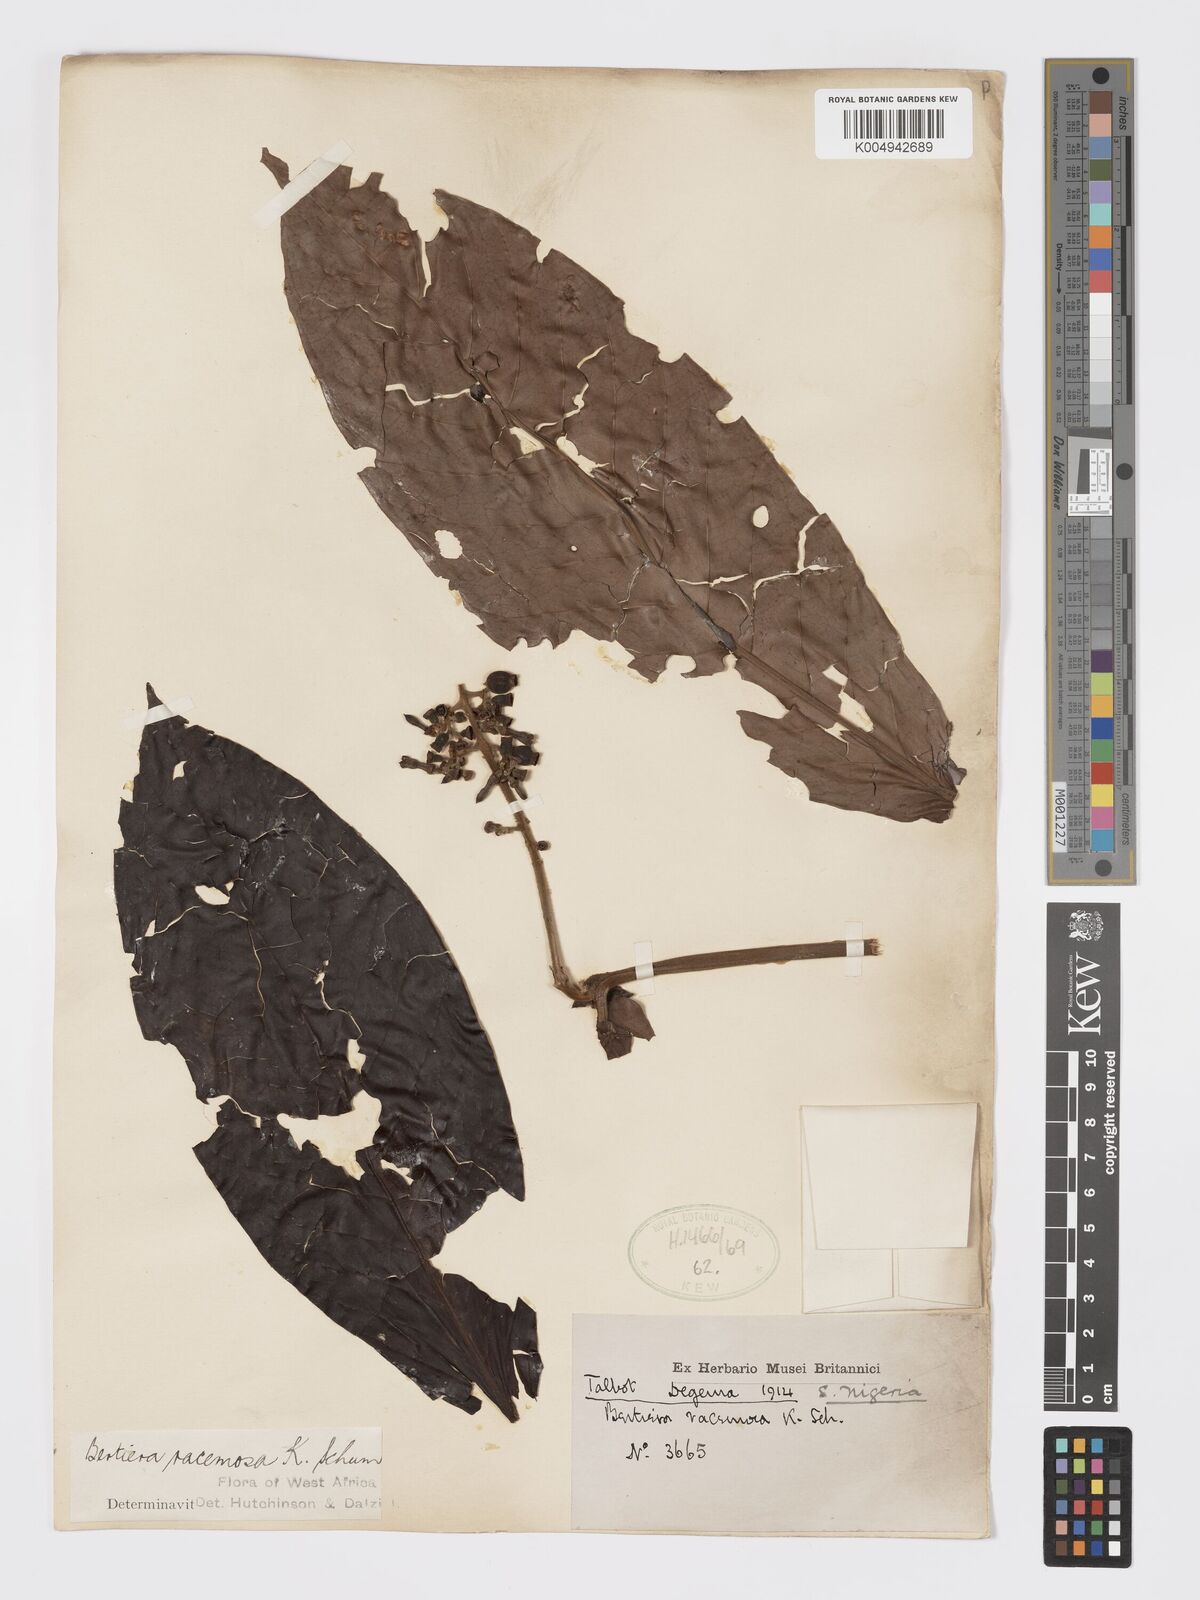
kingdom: Plantae
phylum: Tracheophyta
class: Magnoliopsida
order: Gentianales
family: Rubiaceae
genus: Bertiera
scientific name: Bertiera racemosa
